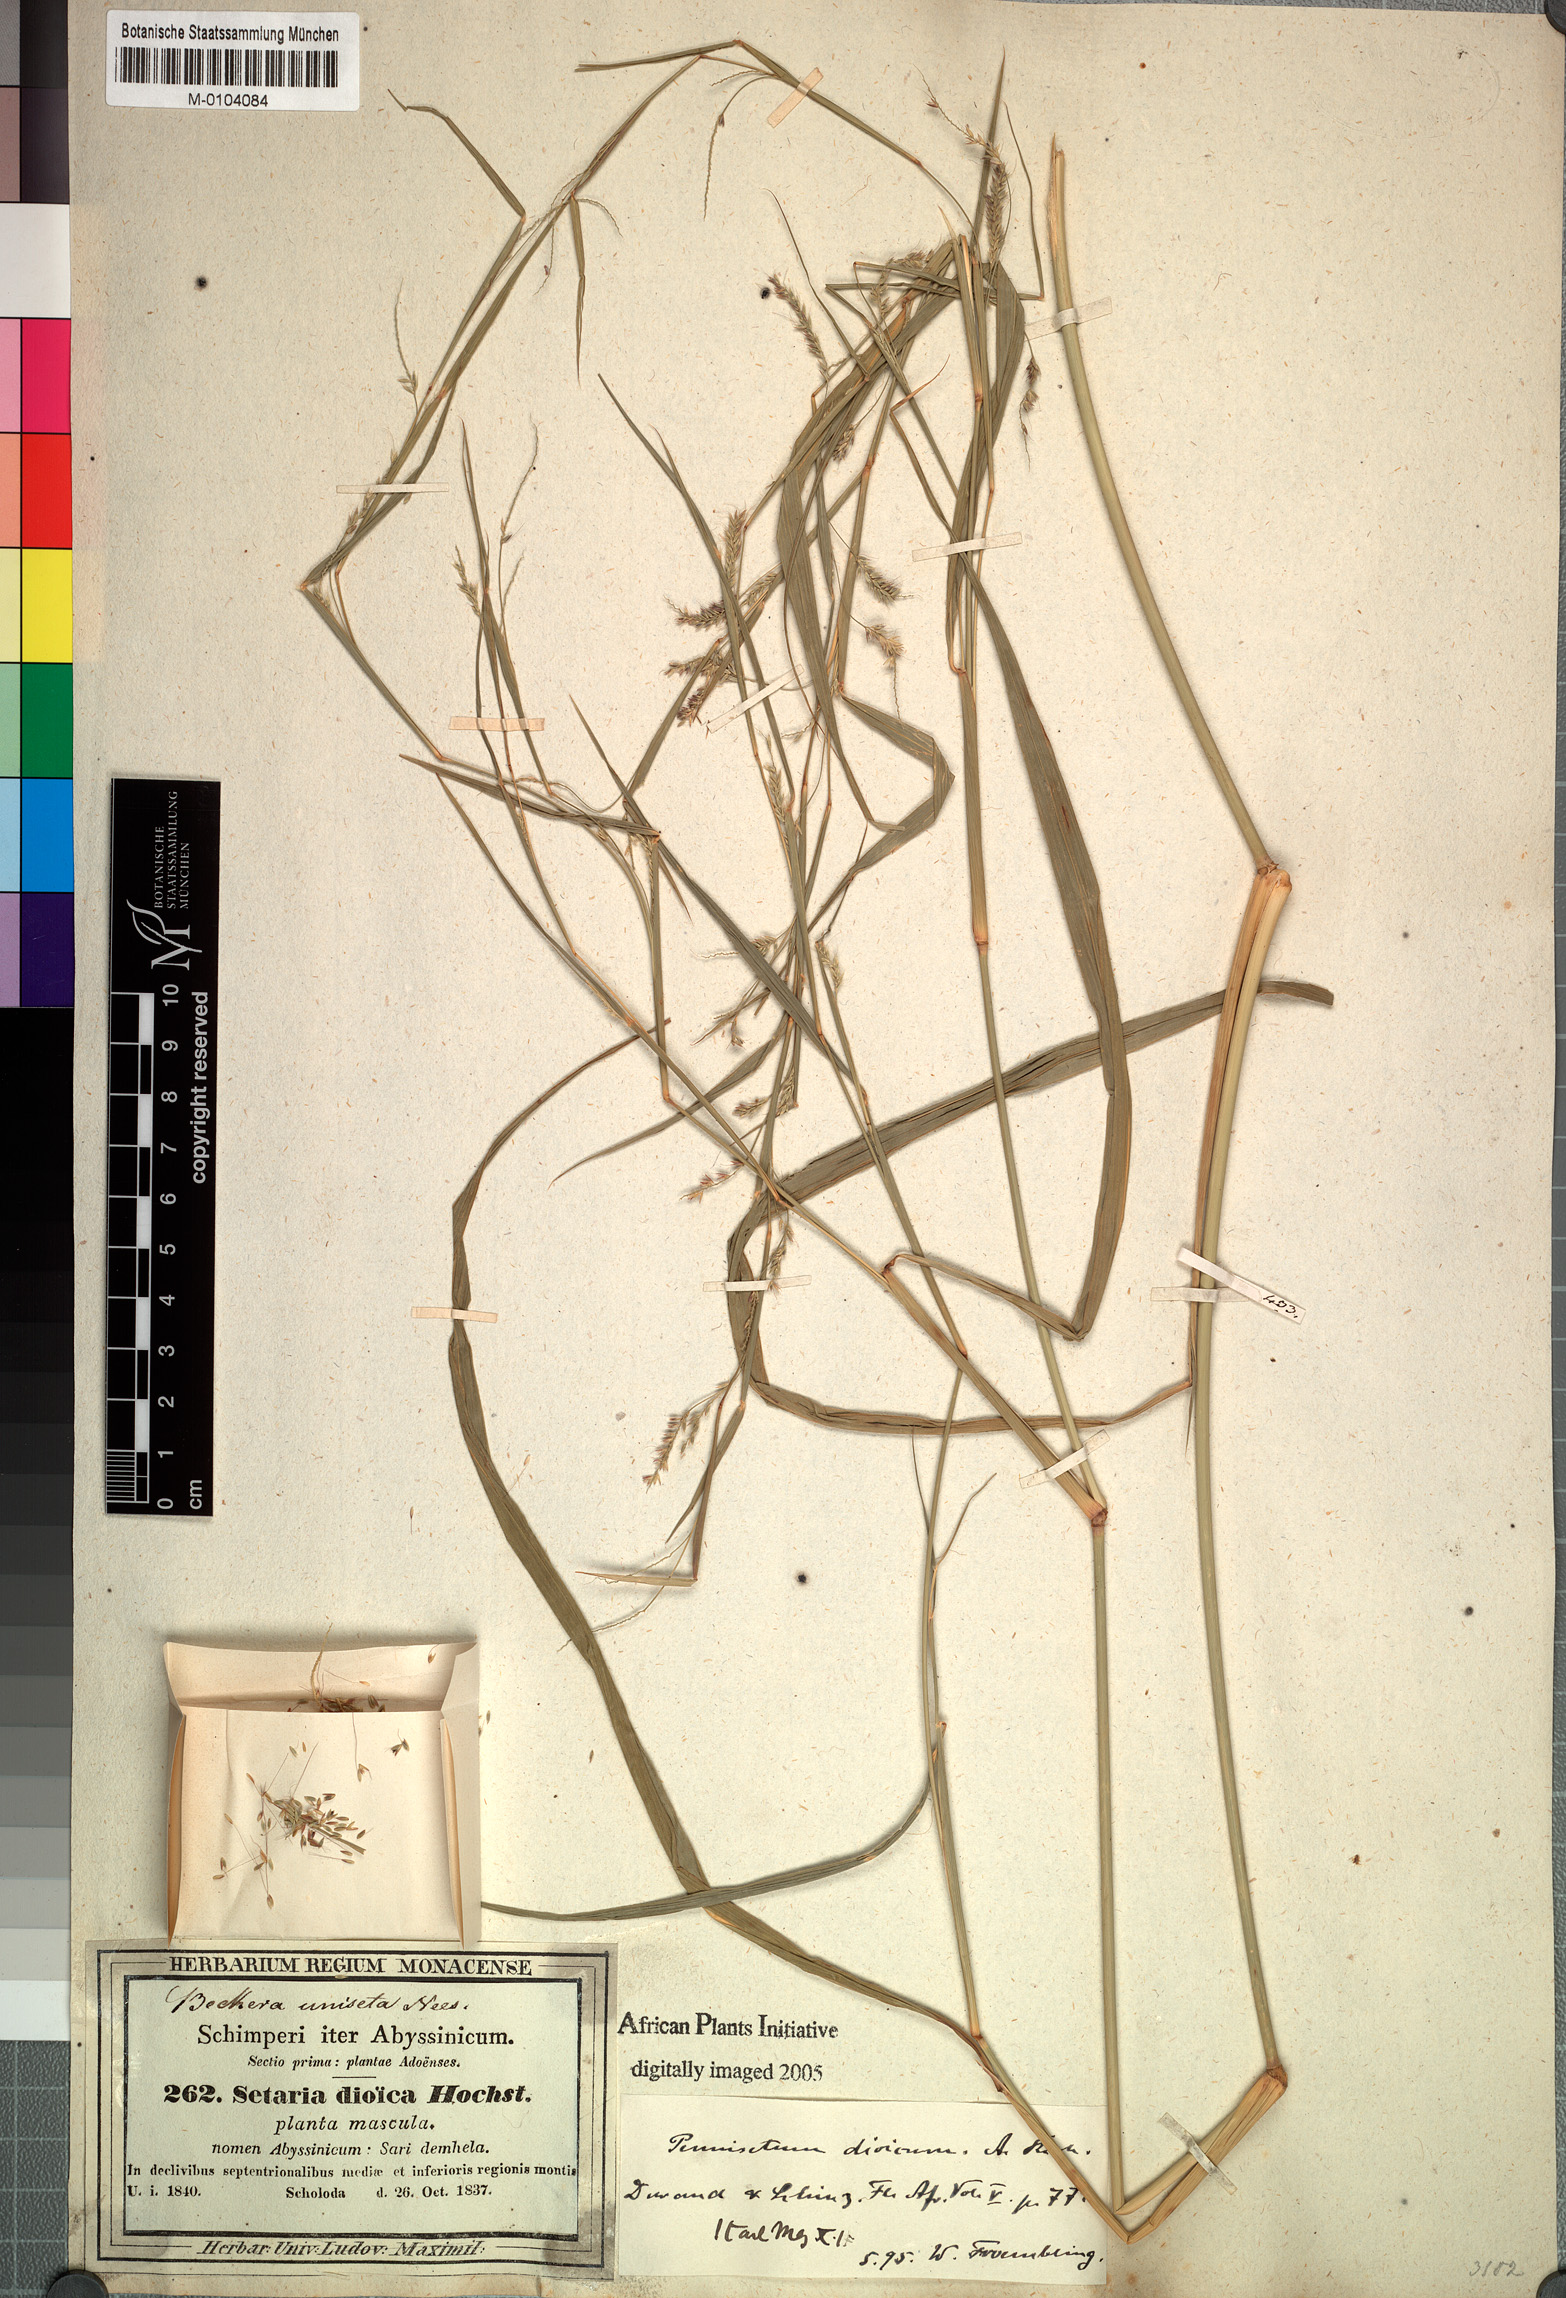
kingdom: Plantae
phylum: Tracheophyta
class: Liliopsida
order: Poales
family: Poaceae
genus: Cenchrus
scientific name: Cenchrus petiolaris
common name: Grass
